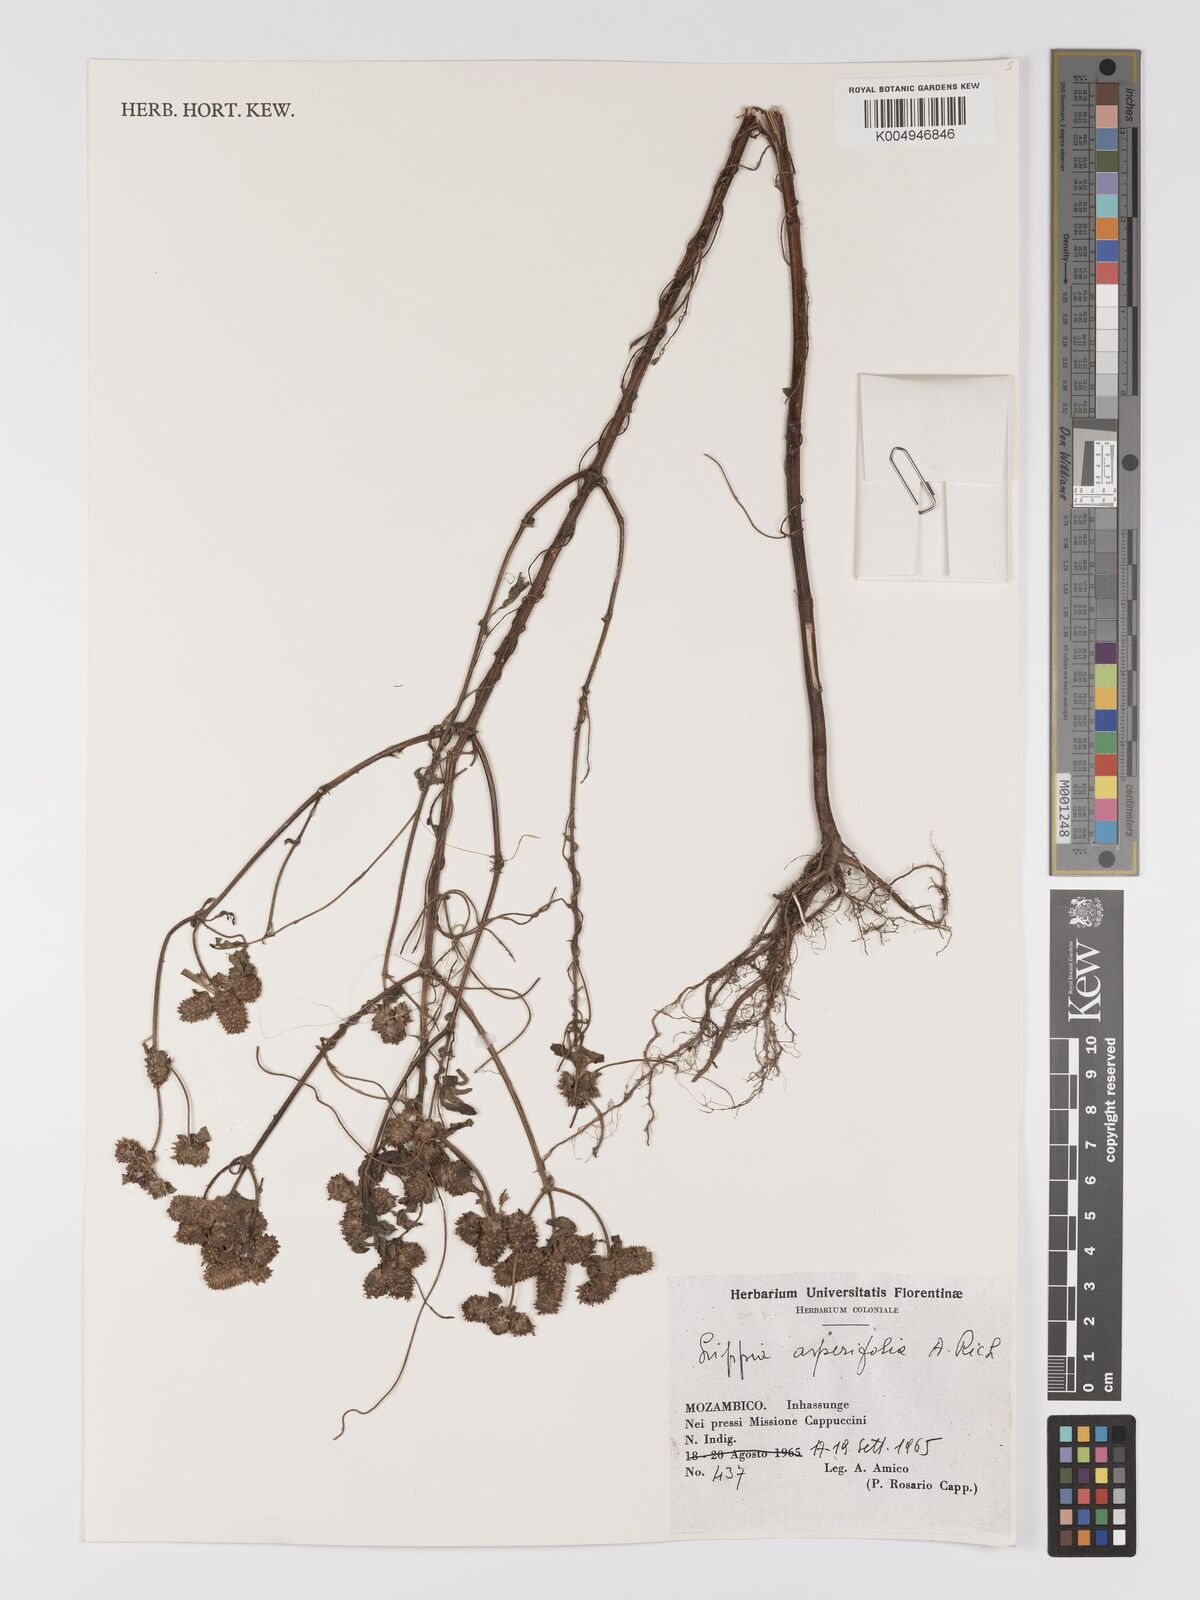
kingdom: Plantae
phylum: Tracheophyta
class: Magnoliopsida
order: Lamiales
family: Verbenaceae
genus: Lippia
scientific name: Lippia
